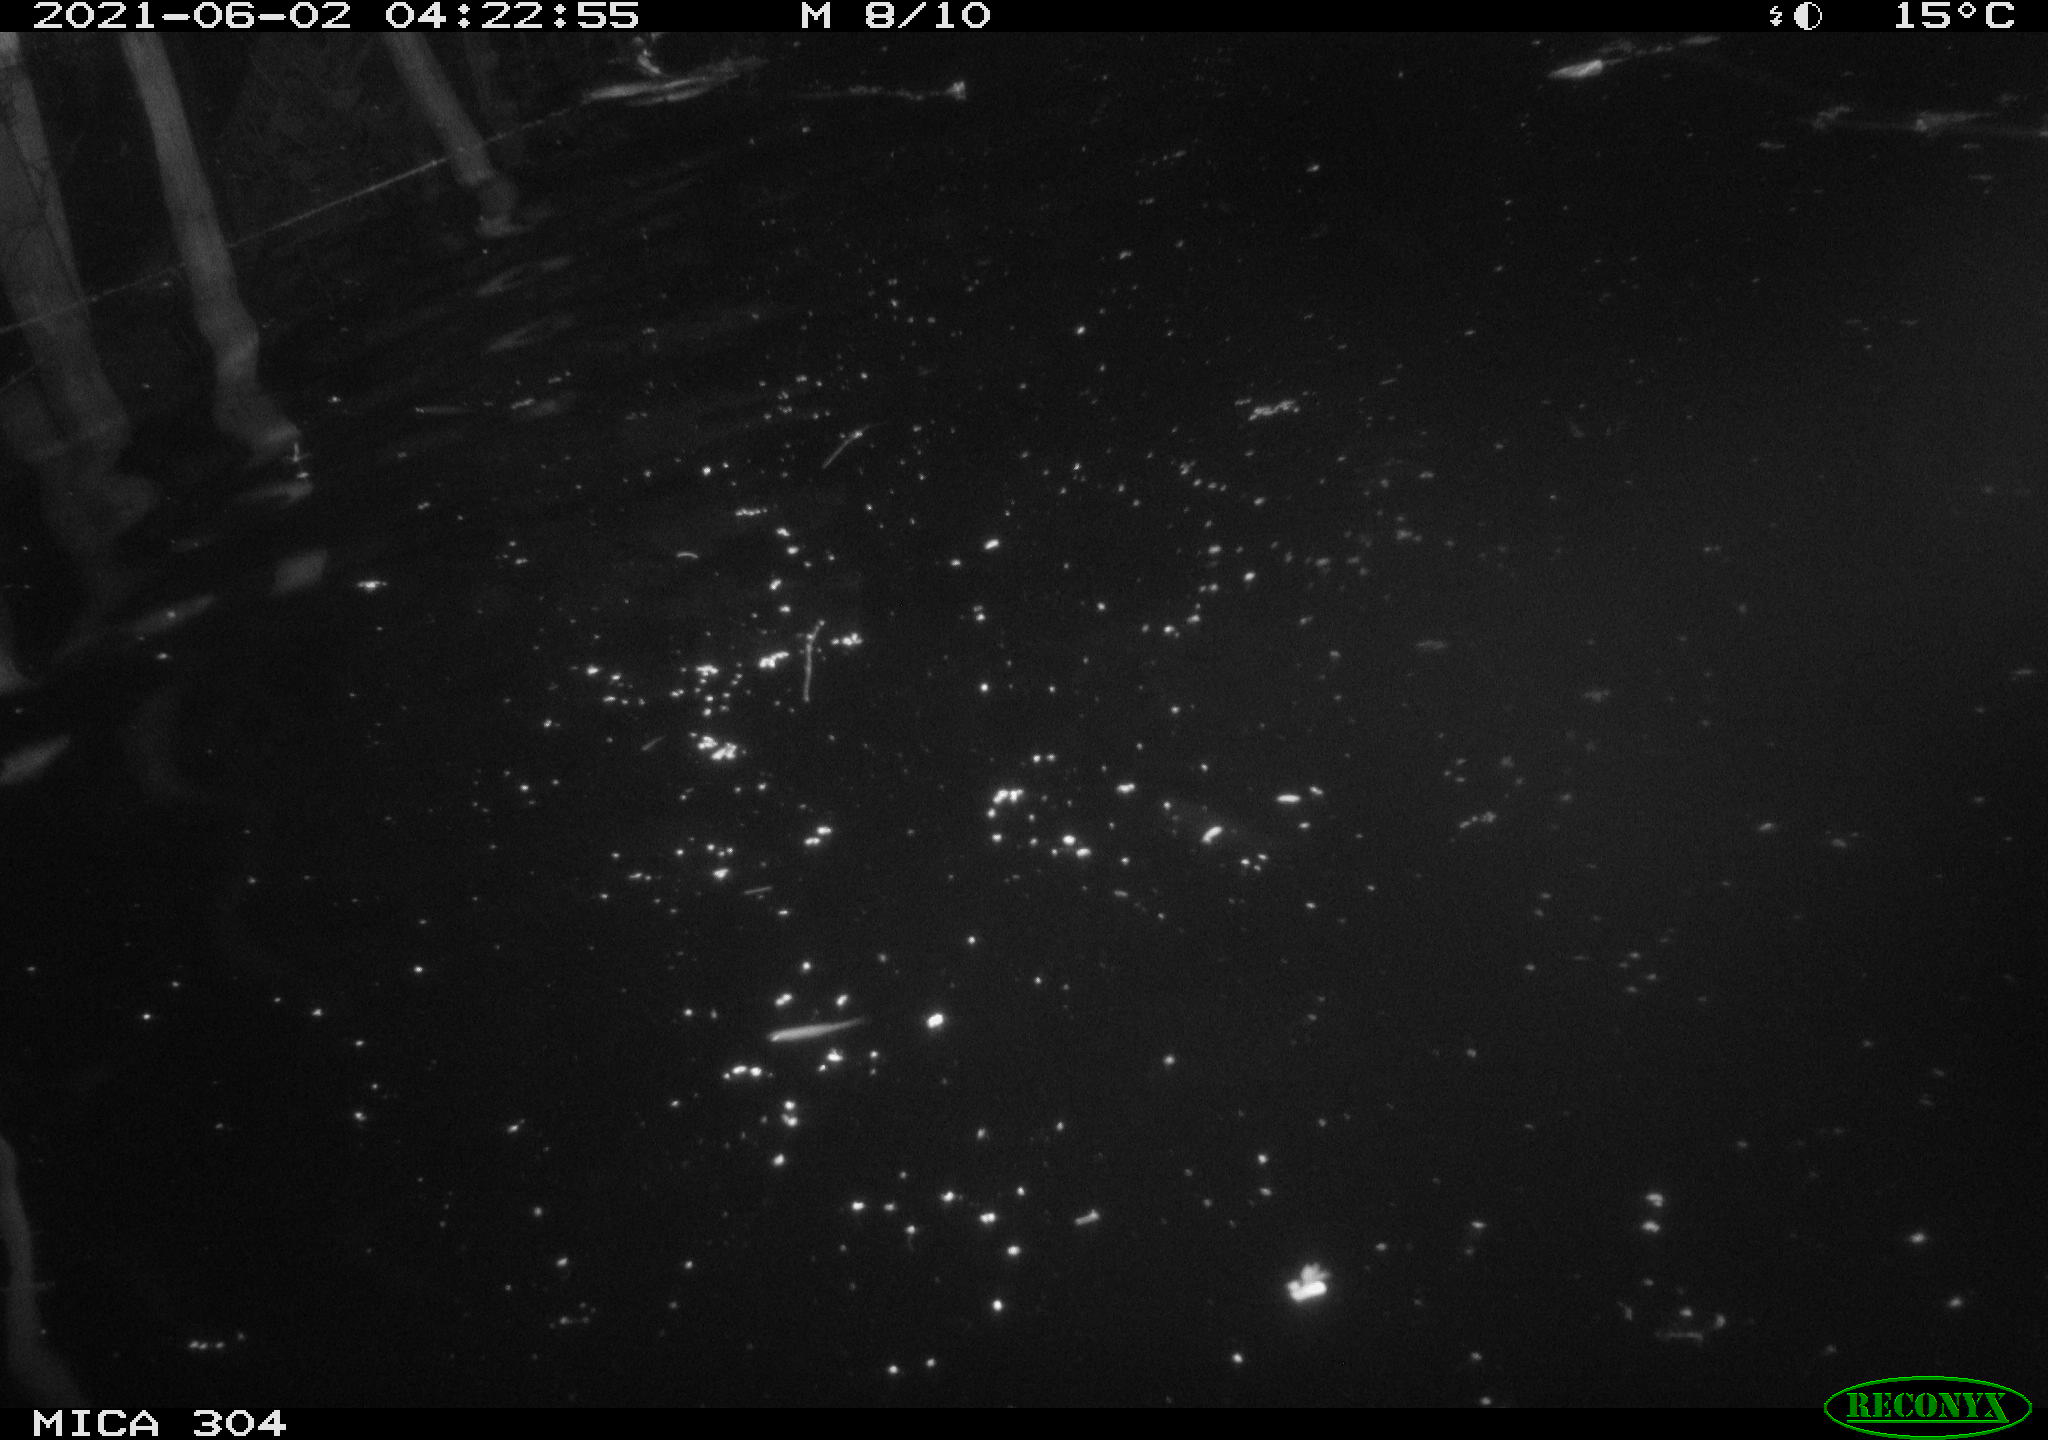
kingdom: Animalia
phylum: Chordata
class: Aves
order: Gruiformes
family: Rallidae
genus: Fulica
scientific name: Fulica atra
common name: Eurasian coot
